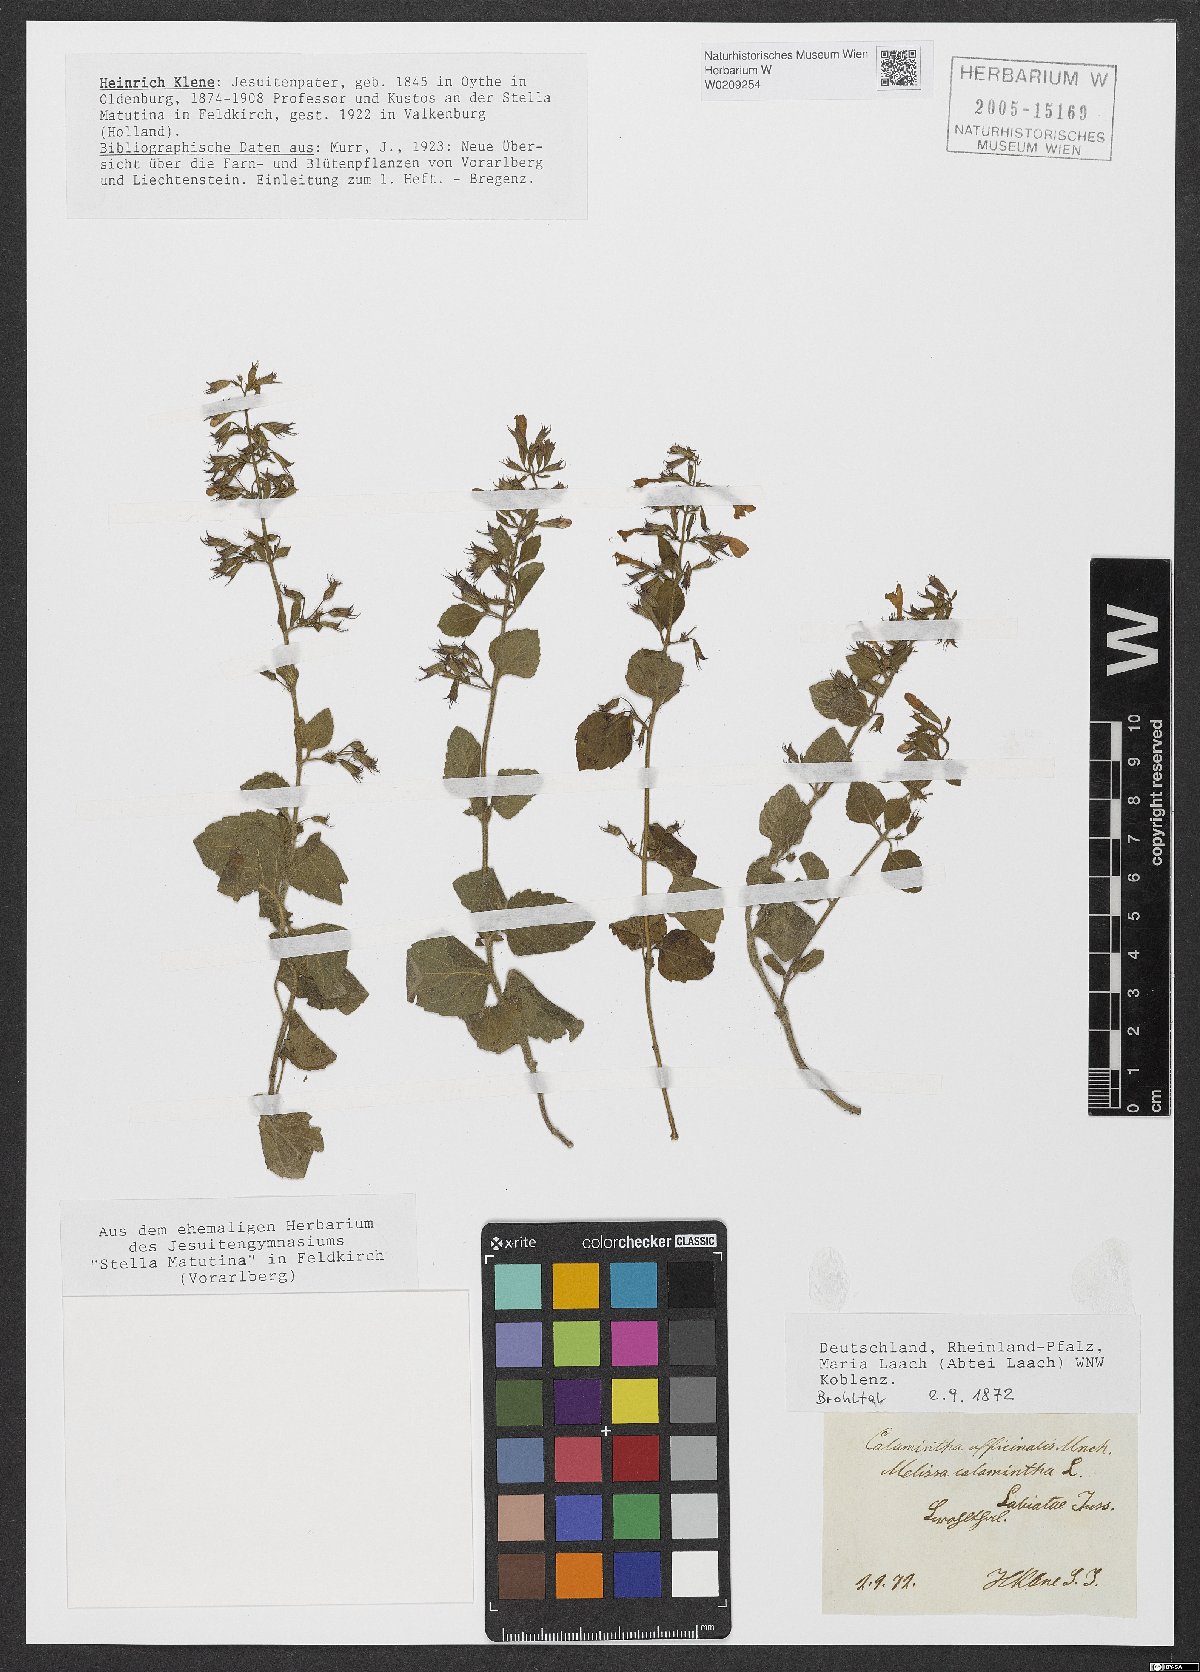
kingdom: Plantae
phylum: Tracheophyta
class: Magnoliopsida
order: Lamiales
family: Lamiaceae
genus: Clinopodium
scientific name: Clinopodium nepeta
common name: Lesser calamint
